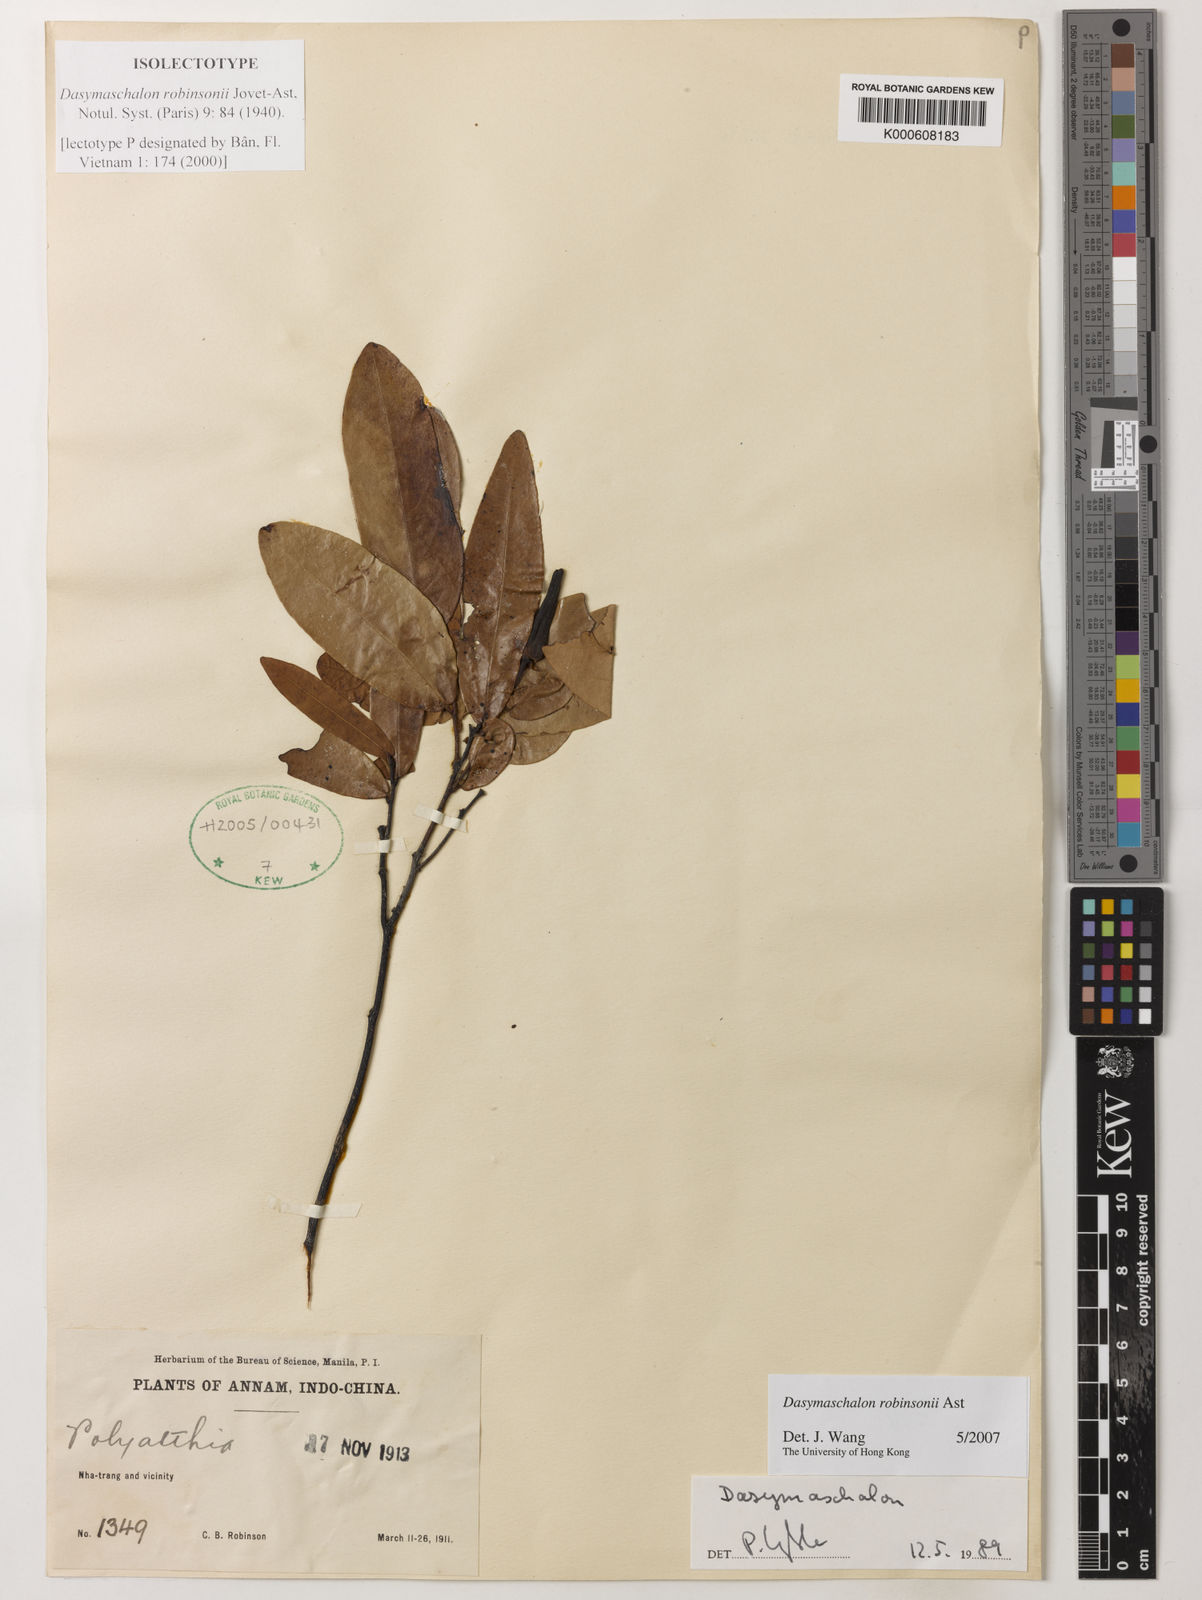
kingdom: Plantae
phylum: Tracheophyta
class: Magnoliopsida
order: Magnoliales
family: Annonaceae
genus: Dasymaschalon
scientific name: Dasymaschalon robinsonii
